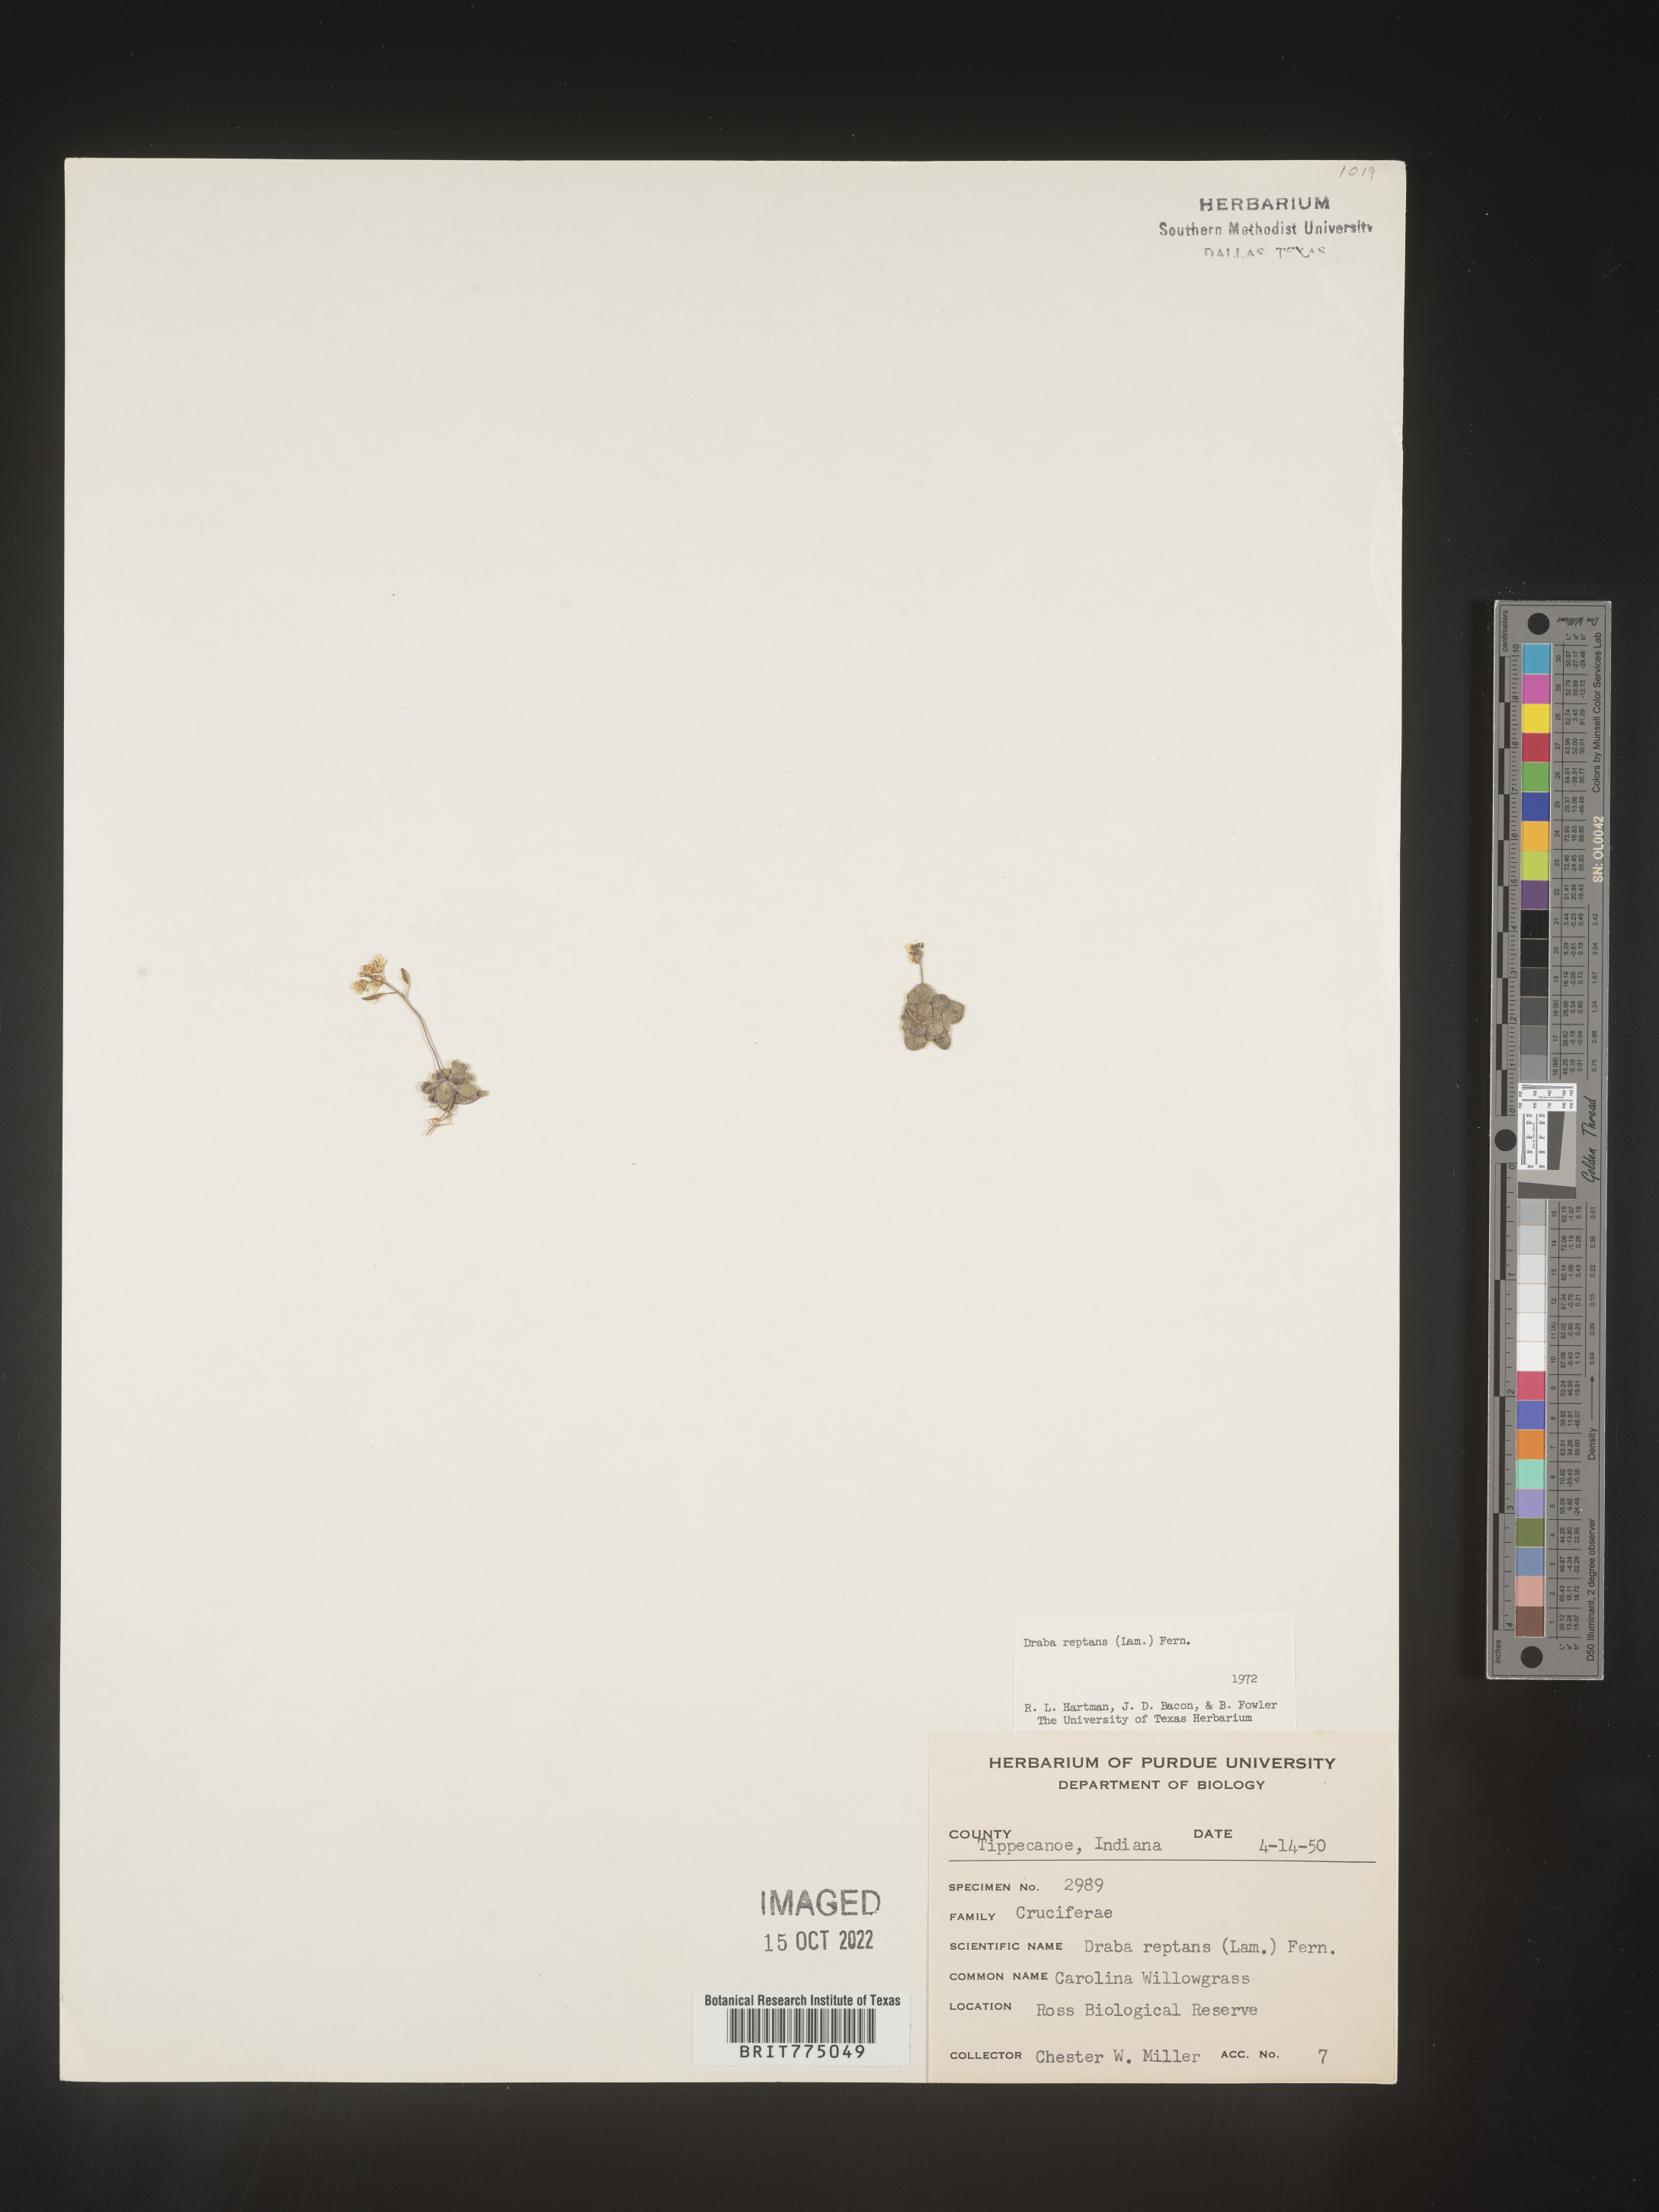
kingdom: Plantae
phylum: Tracheophyta
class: Magnoliopsida
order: Brassicales
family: Brassicaceae
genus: Tomostima
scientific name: Tomostima reptans
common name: Carolina draba
